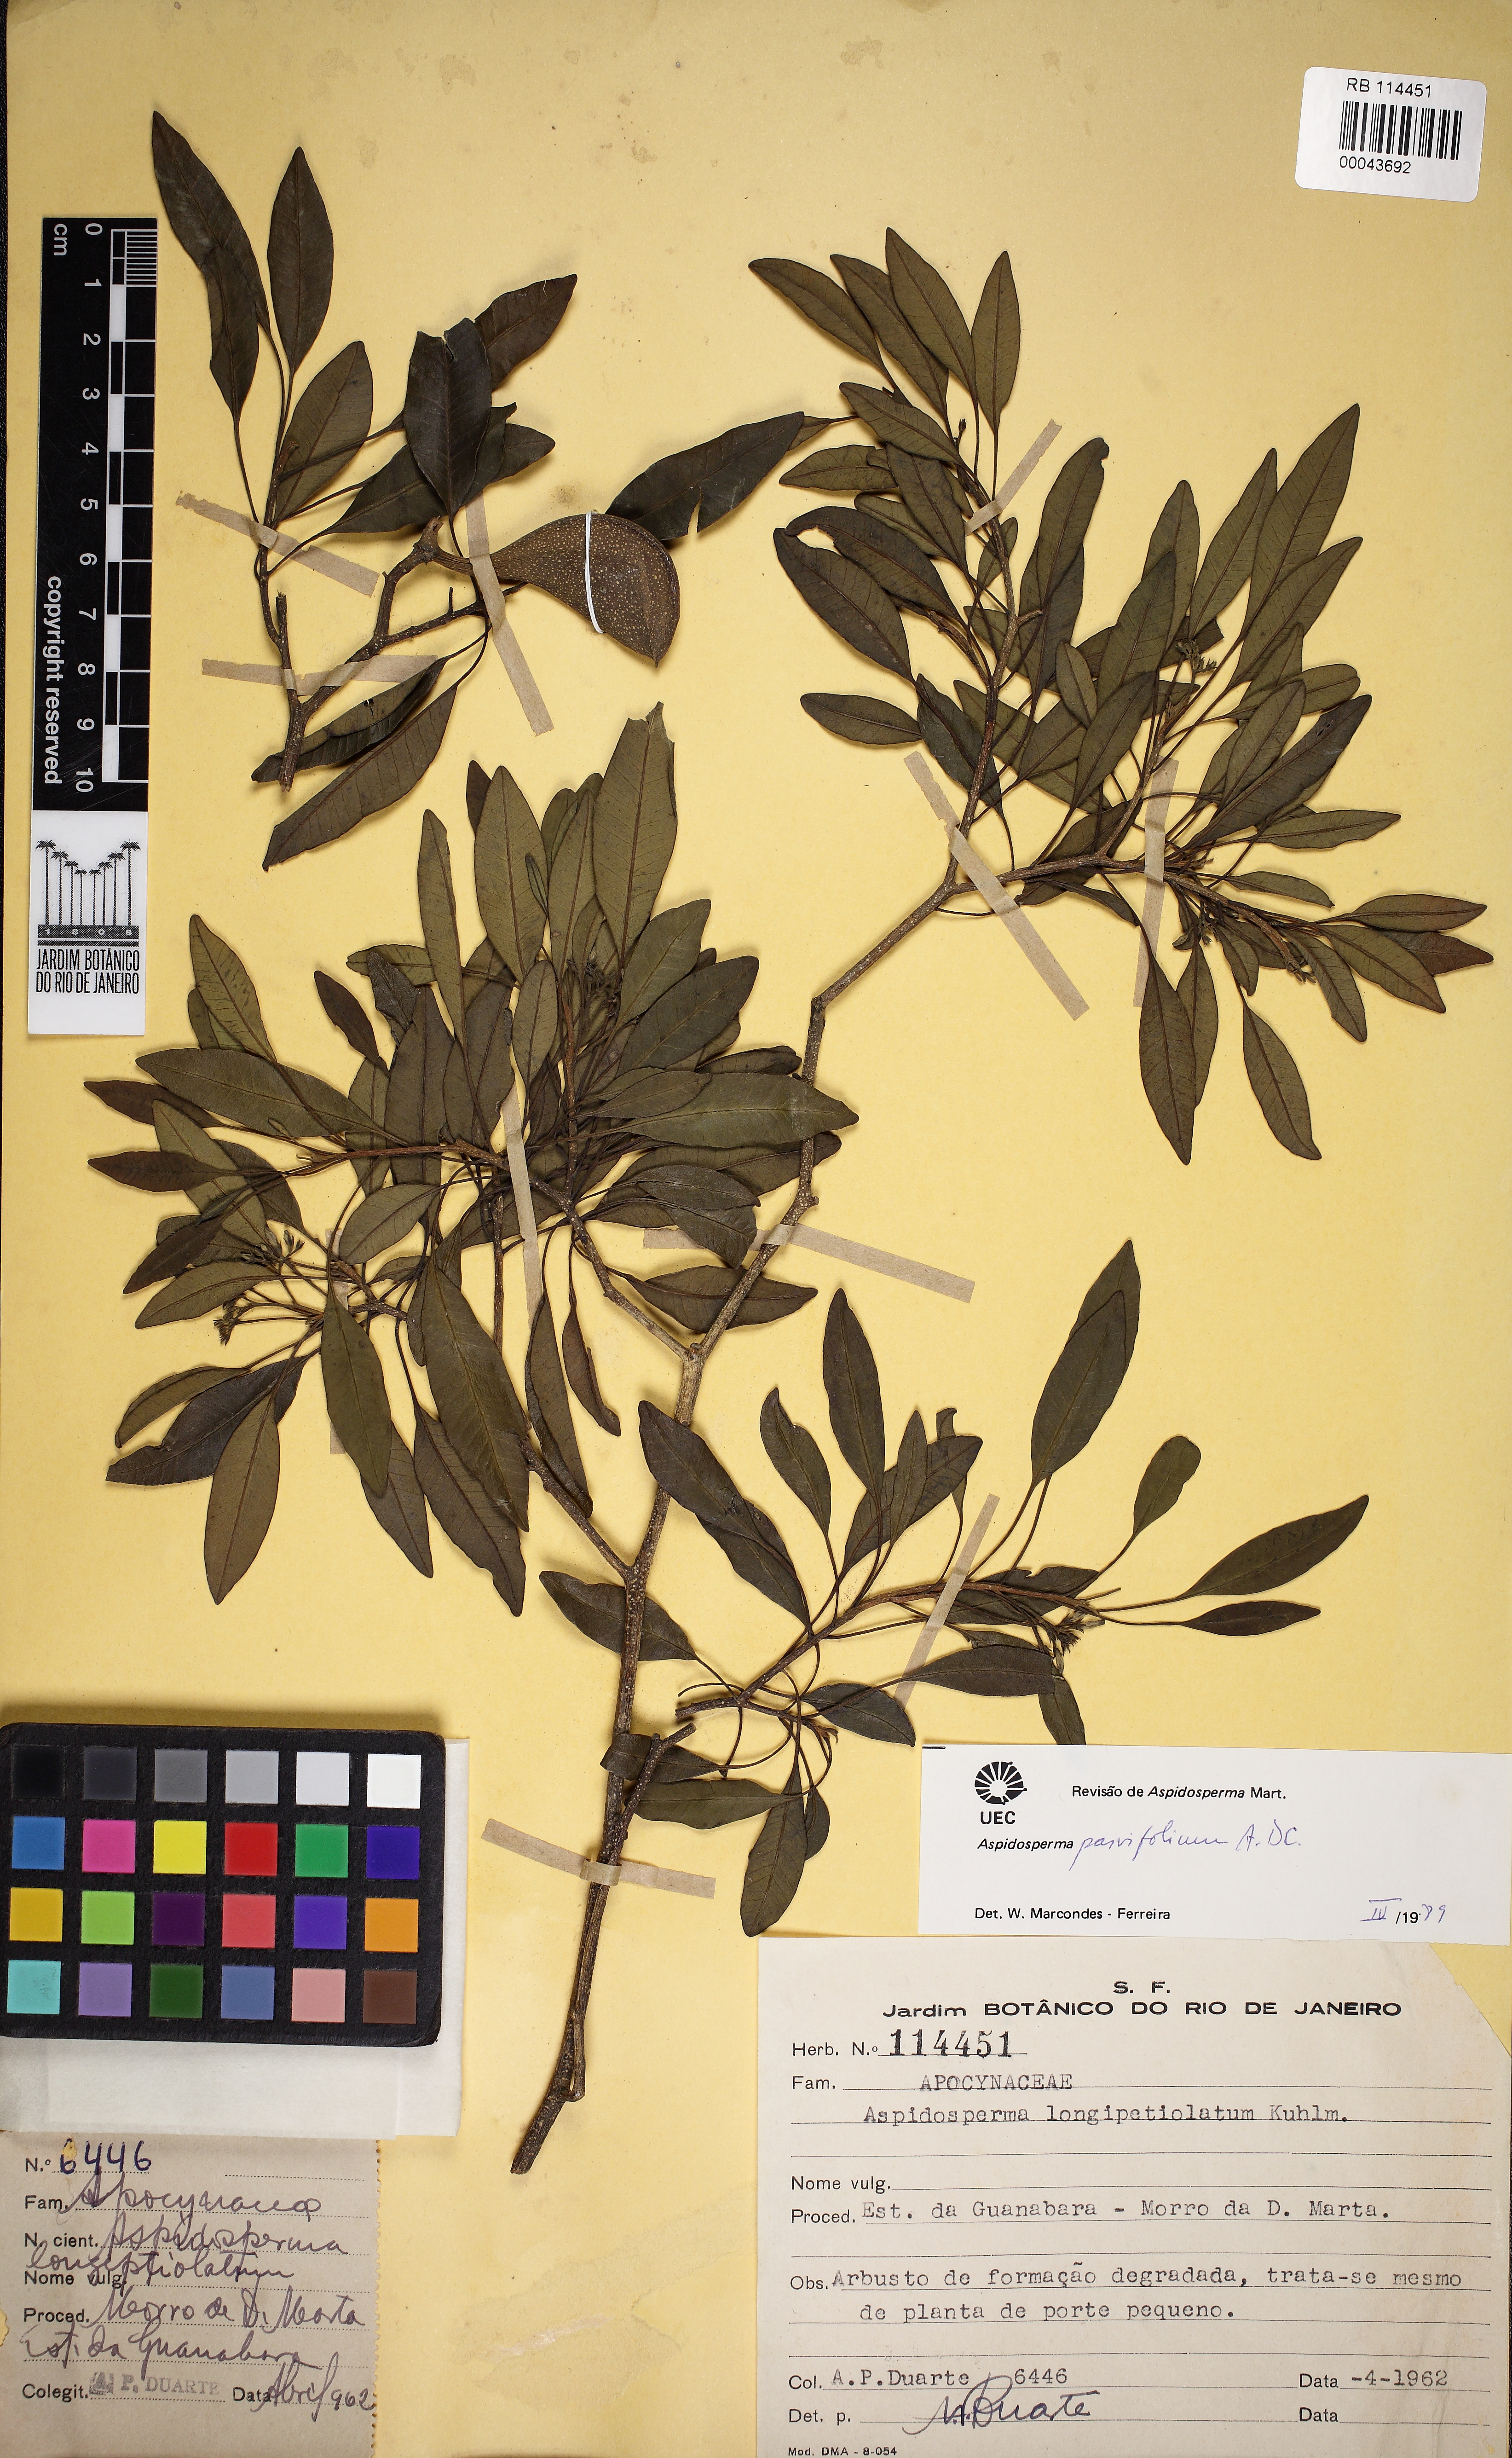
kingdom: Plantae
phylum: Tracheophyta
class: Magnoliopsida
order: Gentianales
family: Apocynaceae
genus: Aspidosperma
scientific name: Aspidosperma australe
